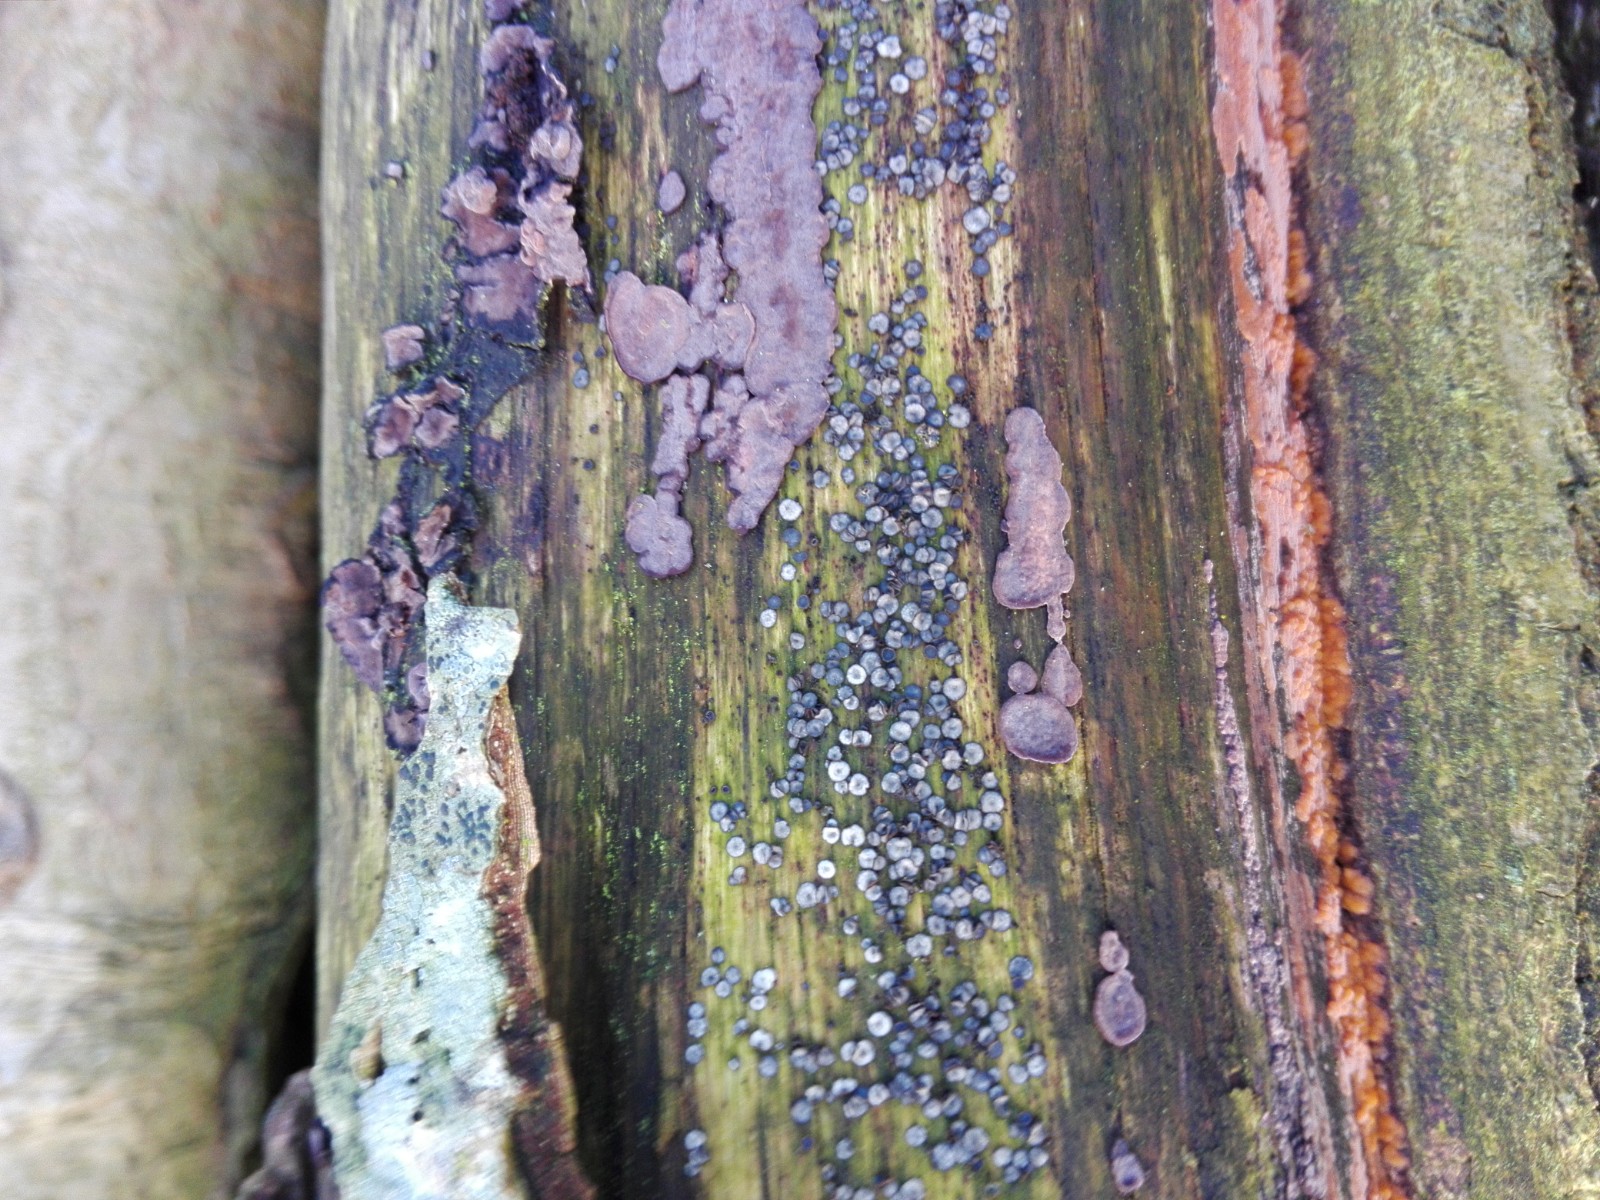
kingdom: Fungi
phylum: Ascomycota
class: Leotiomycetes
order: Helotiales
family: Mollisiaceae
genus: Mollisia
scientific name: Mollisia
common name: gråskive
